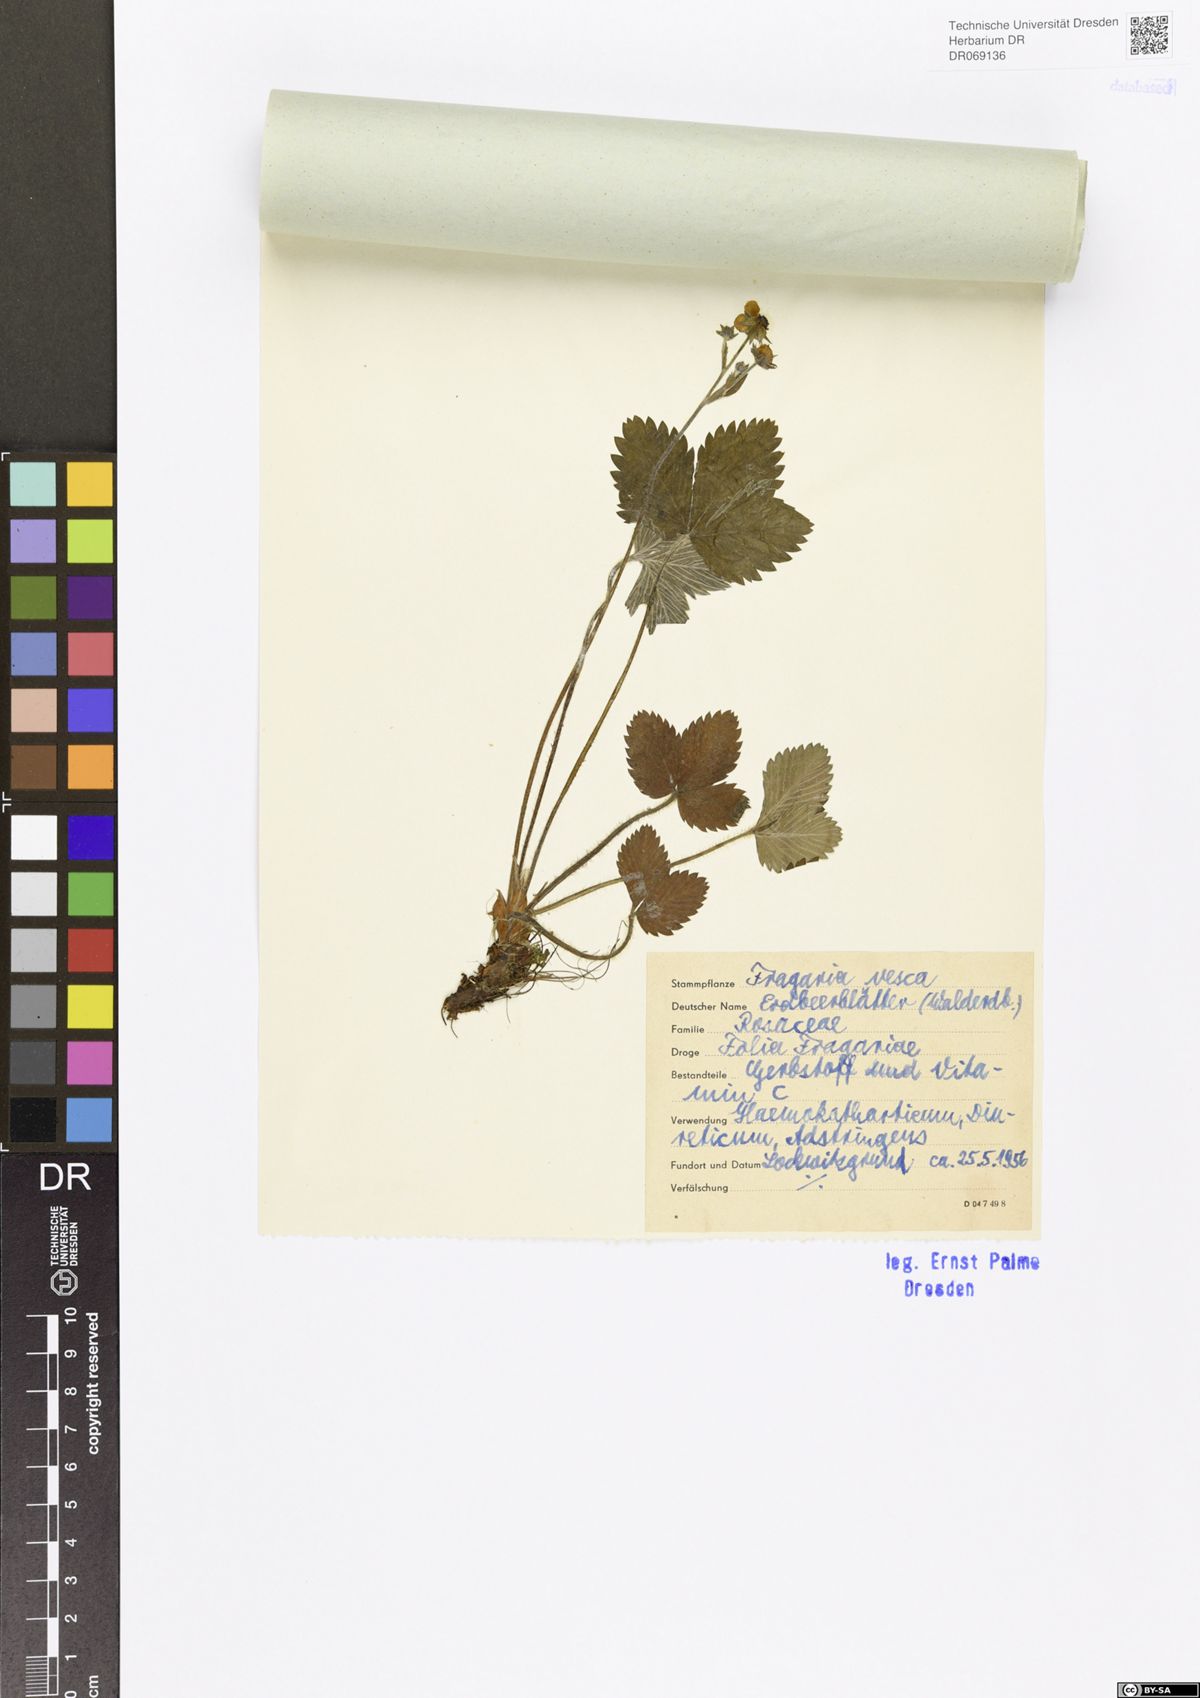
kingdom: Plantae
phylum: Tracheophyta
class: Magnoliopsida
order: Rosales
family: Rosaceae
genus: Fragaria
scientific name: Fragaria vesca
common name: Wild strawberry
